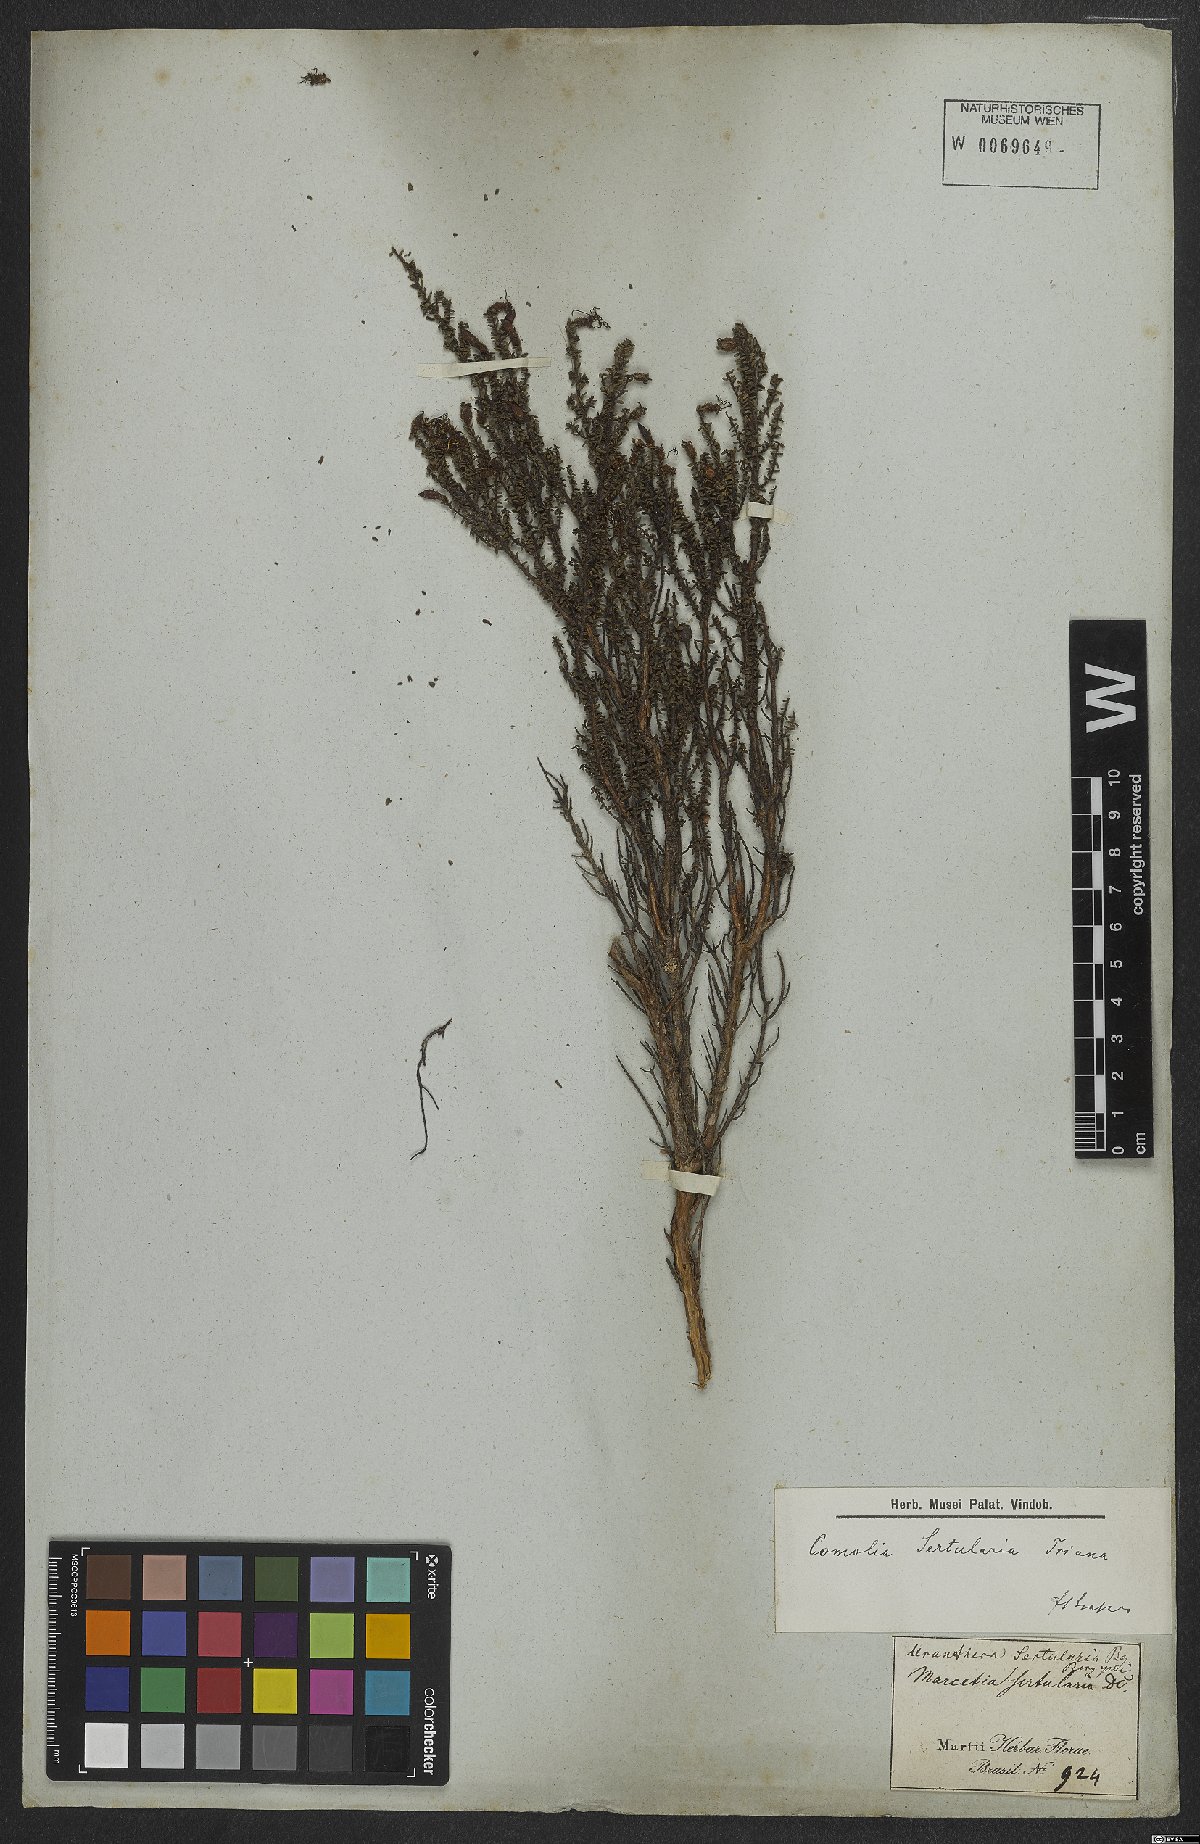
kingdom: Plantae
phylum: Tracheophyta
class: Magnoliopsida
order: Myrtales
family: Melastomataceae
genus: Fritzschia
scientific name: Fritzschia sertularia
